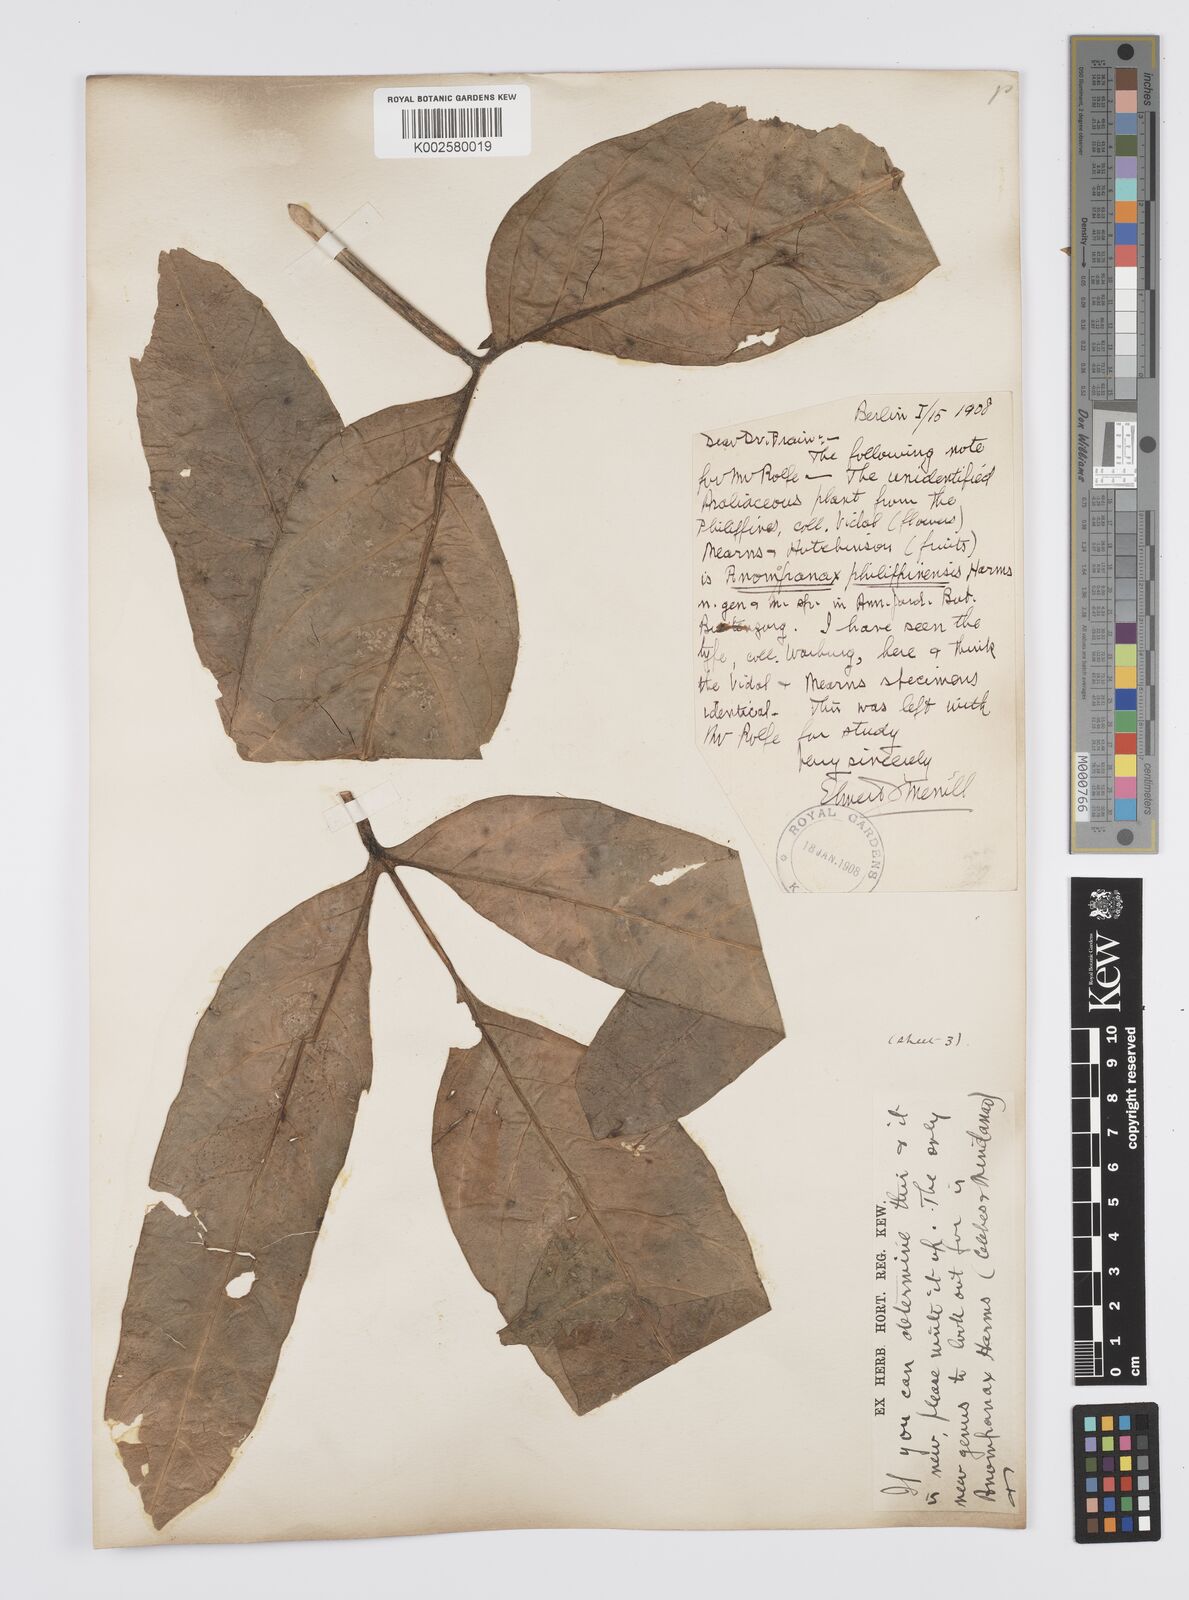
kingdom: Plantae
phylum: Tracheophyta
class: Magnoliopsida
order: Apiales
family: Apiaceae
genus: Mackinlaya
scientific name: Mackinlaya celebica
